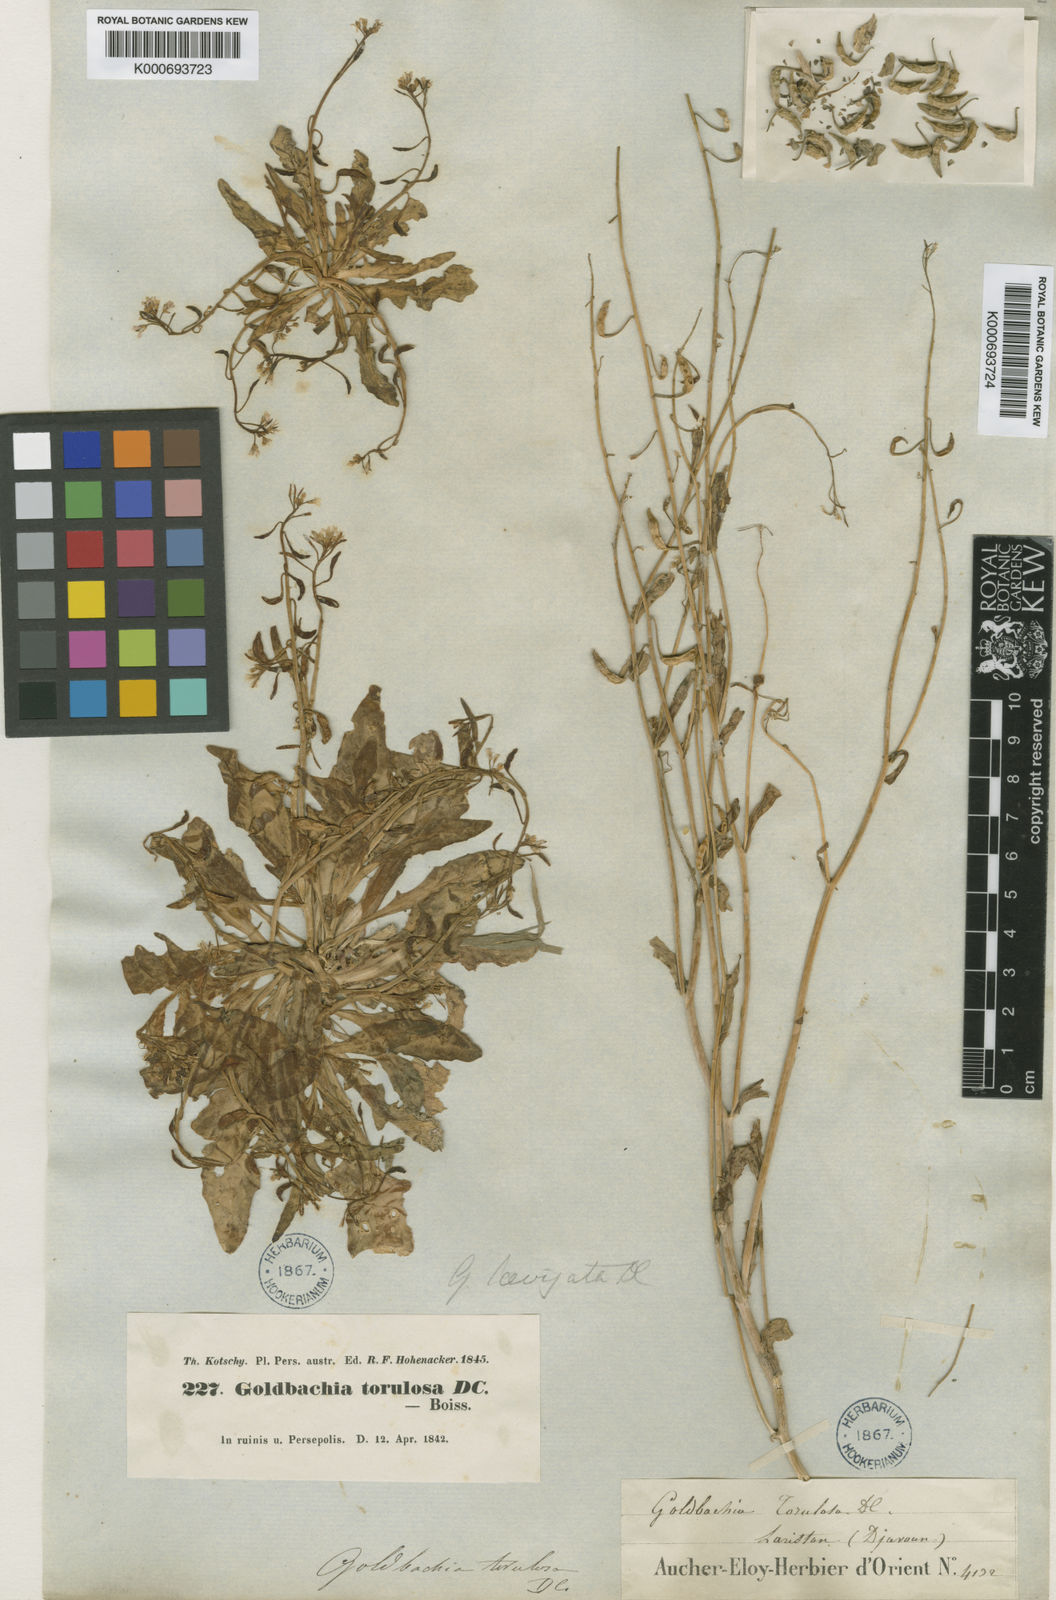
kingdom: Plantae
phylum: Tracheophyta
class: Magnoliopsida
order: Brassicales
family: Brassicaceae
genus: Goldbachia
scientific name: Goldbachia laevigata
